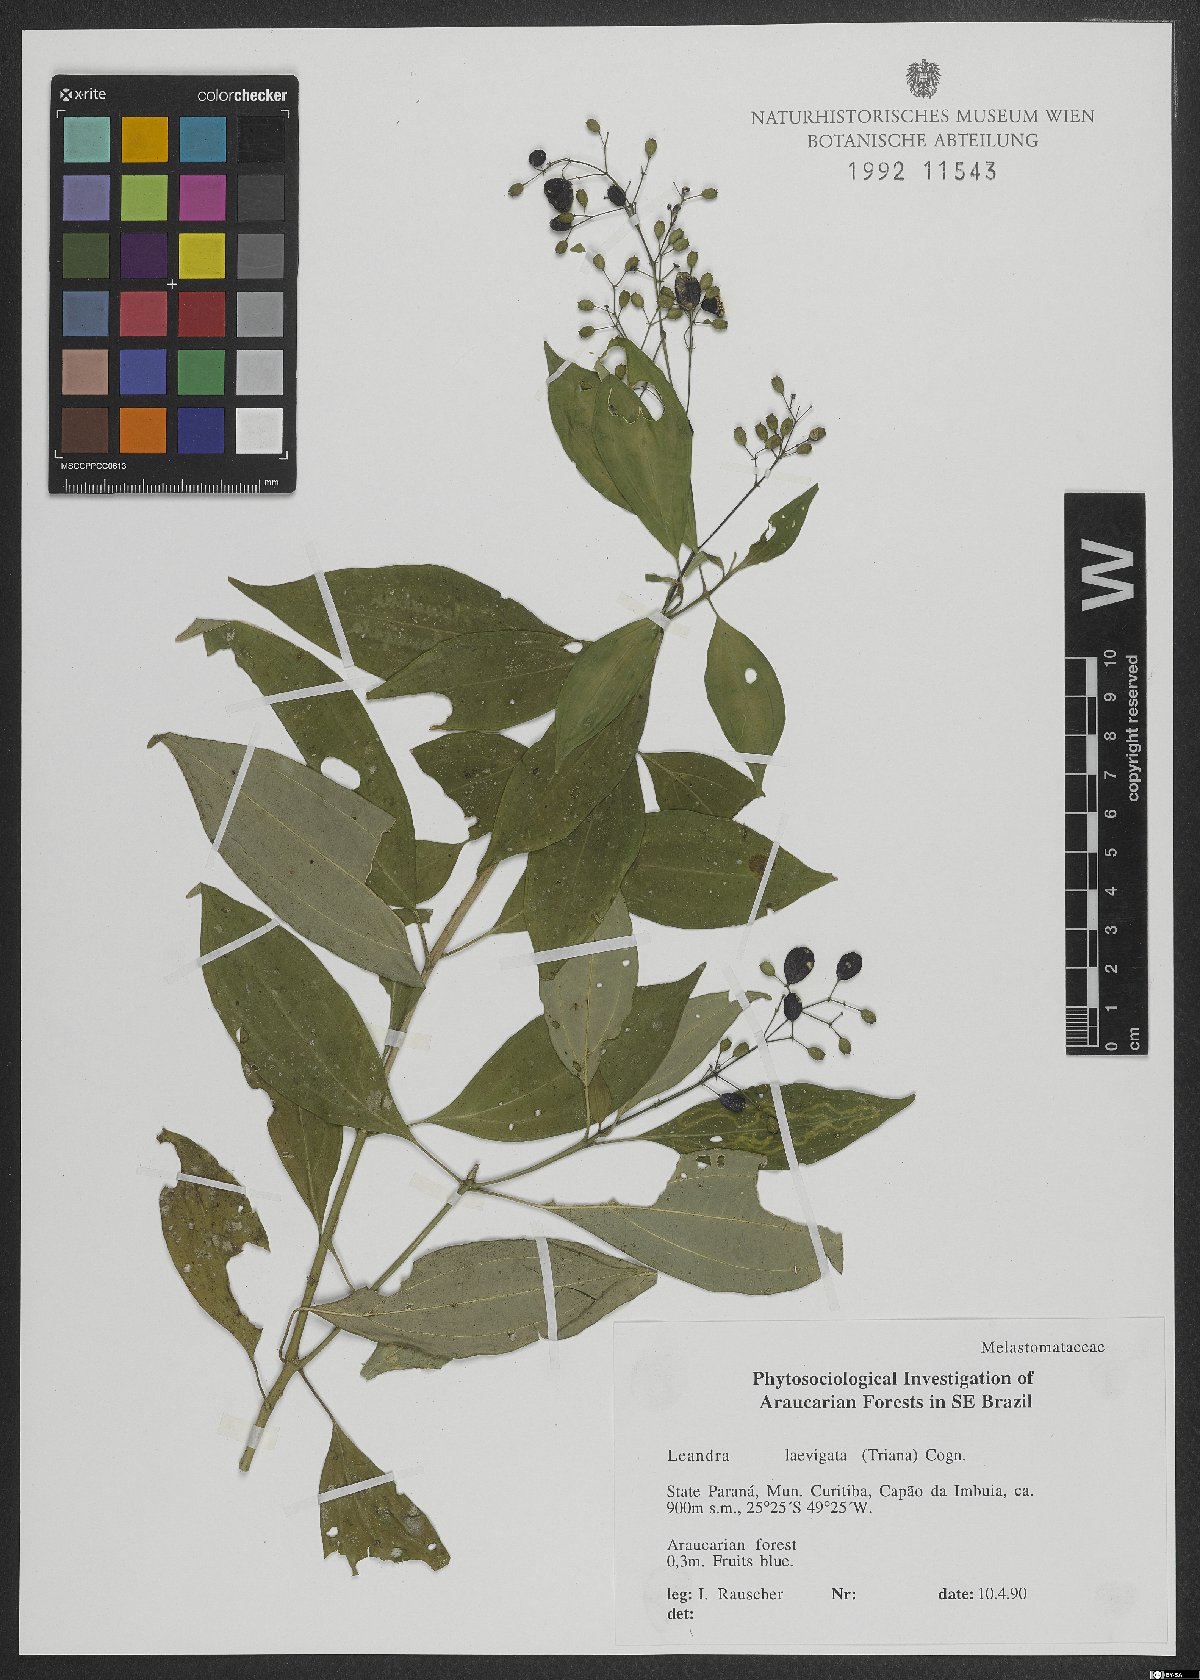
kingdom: Plantae
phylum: Tracheophyta
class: Magnoliopsida
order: Myrtales
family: Melastomataceae
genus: Miconia
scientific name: Miconia ciliolata
